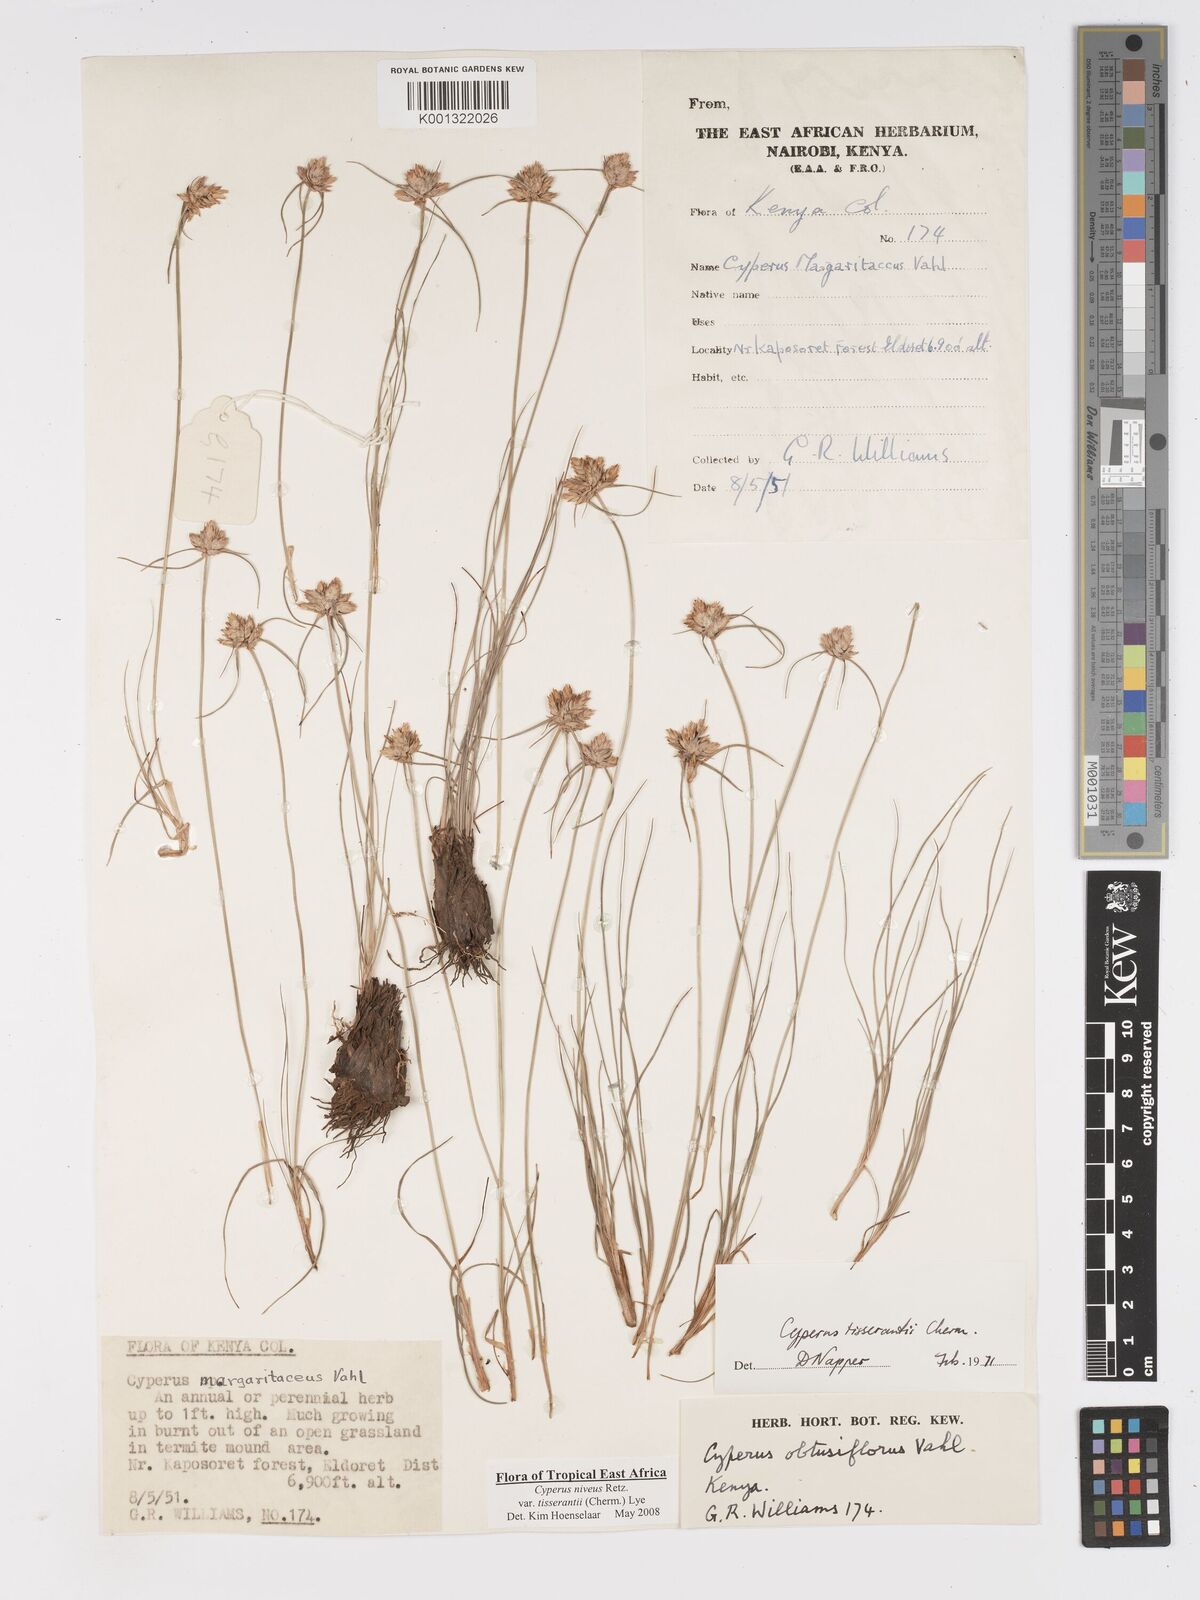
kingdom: Plantae
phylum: Tracheophyta
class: Liliopsida
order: Poales
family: Cyperaceae
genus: Cyperus
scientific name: Cyperus niveus
